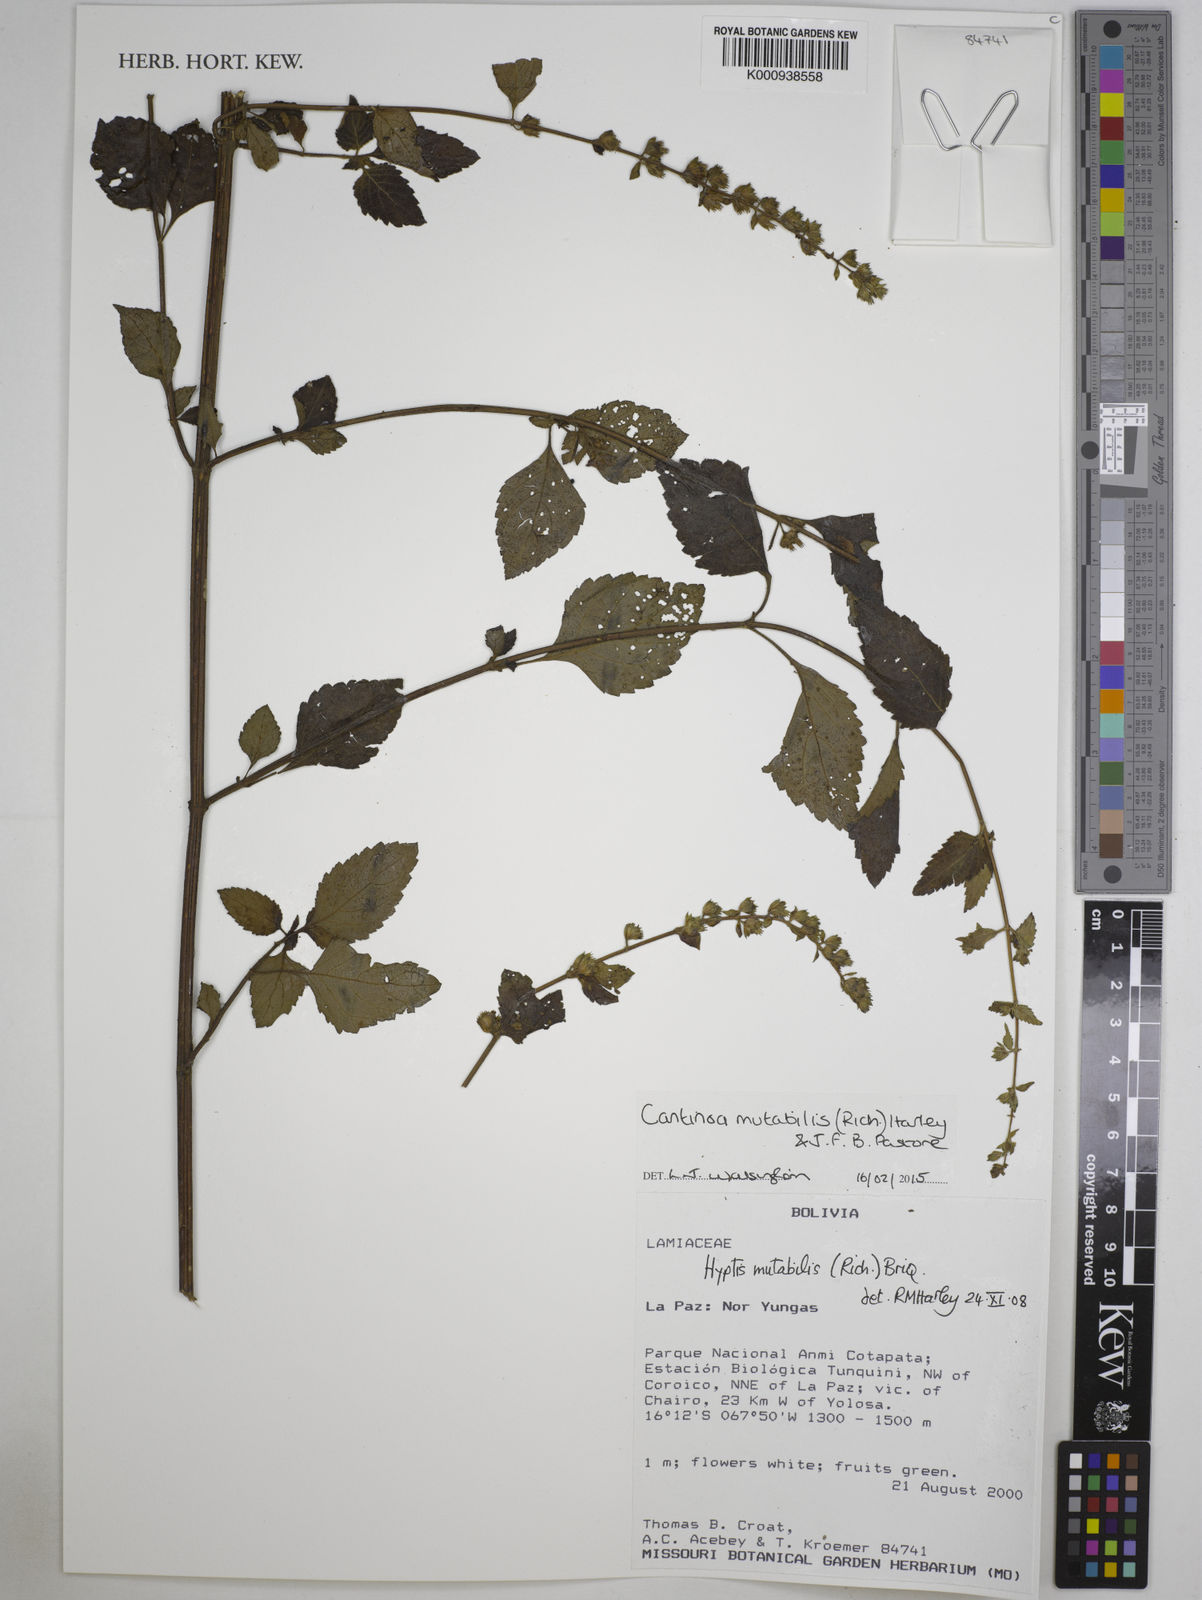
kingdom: Plantae
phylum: Tracheophyta
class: Magnoliopsida
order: Lamiales
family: Lamiaceae
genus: Cantinoa
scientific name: Cantinoa mutabilis
